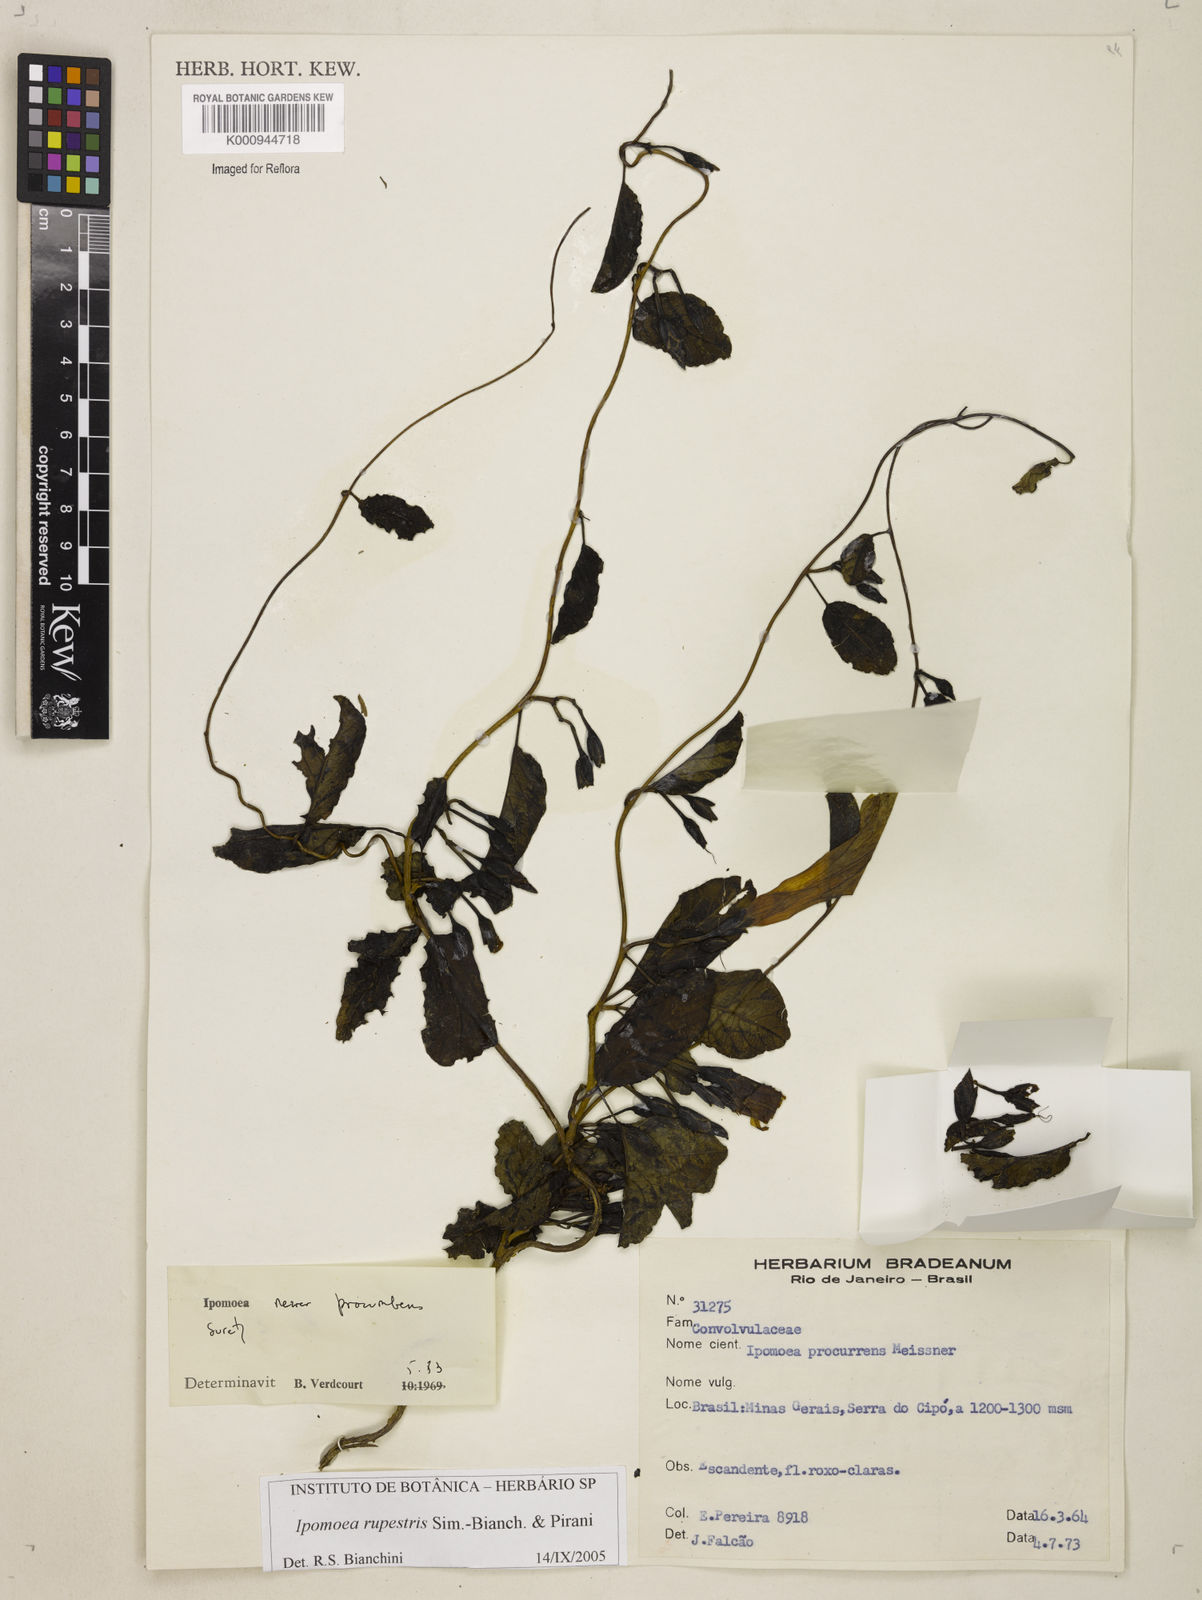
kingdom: Plantae
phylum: Tracheophyta
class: Magnoliopsida
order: Solanales
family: Convolvulaceae
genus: Ipomoea
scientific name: Ipomoea rupestris
